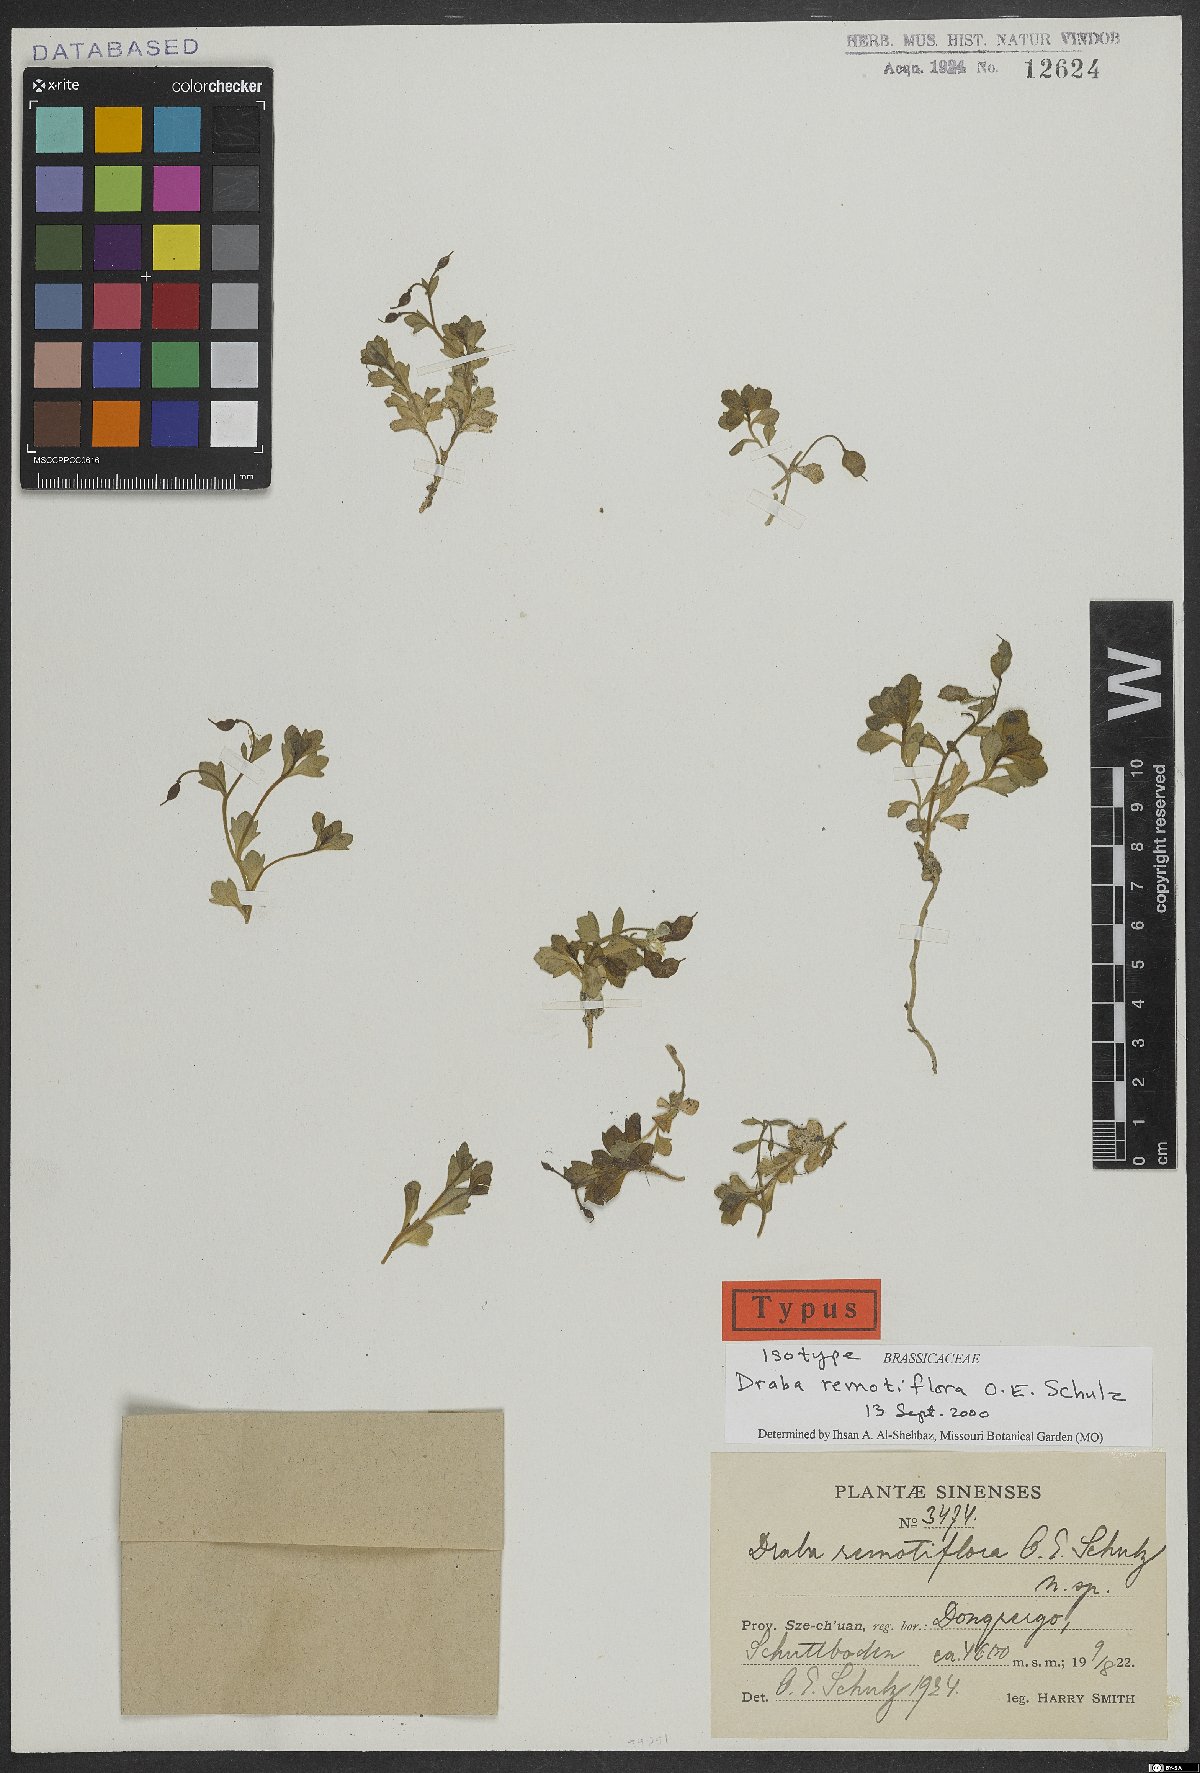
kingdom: Plantae
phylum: Tracheophyta
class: Magnoliopsida
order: Brassicales
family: Brassicaceae
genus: Draba
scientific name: Draba remotiflora
